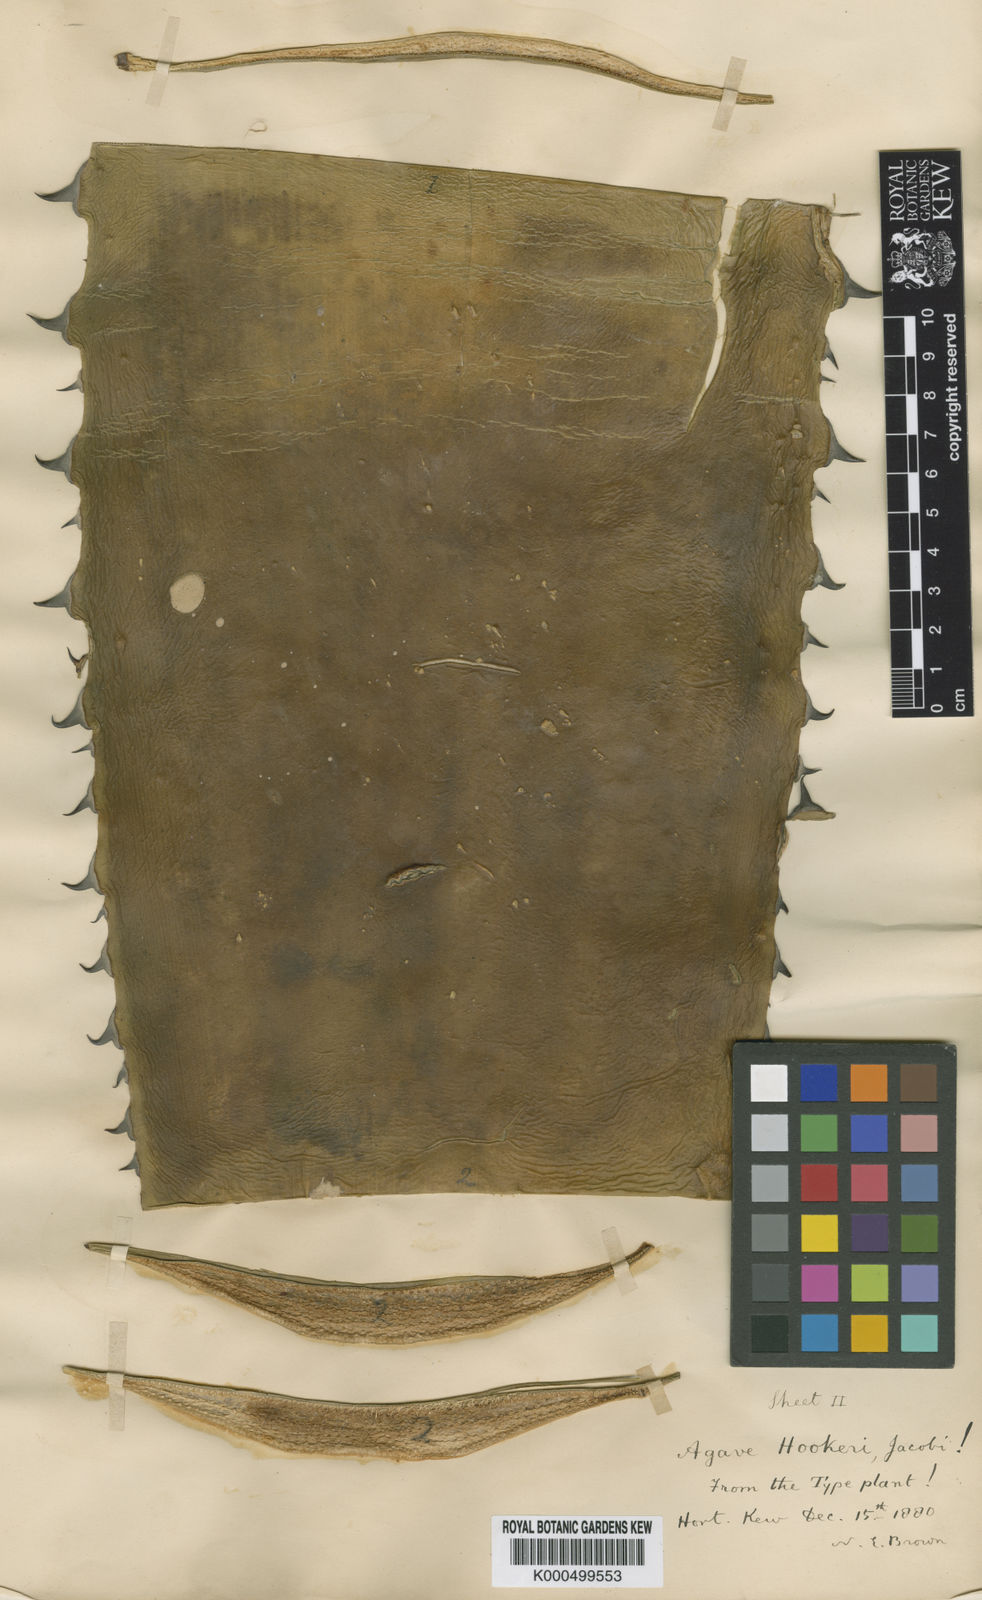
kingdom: Plantae
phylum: Tracheophyta
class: Liliopsida
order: Asparagales
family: Asparagaceae
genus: Agave
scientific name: Agave hookeri
